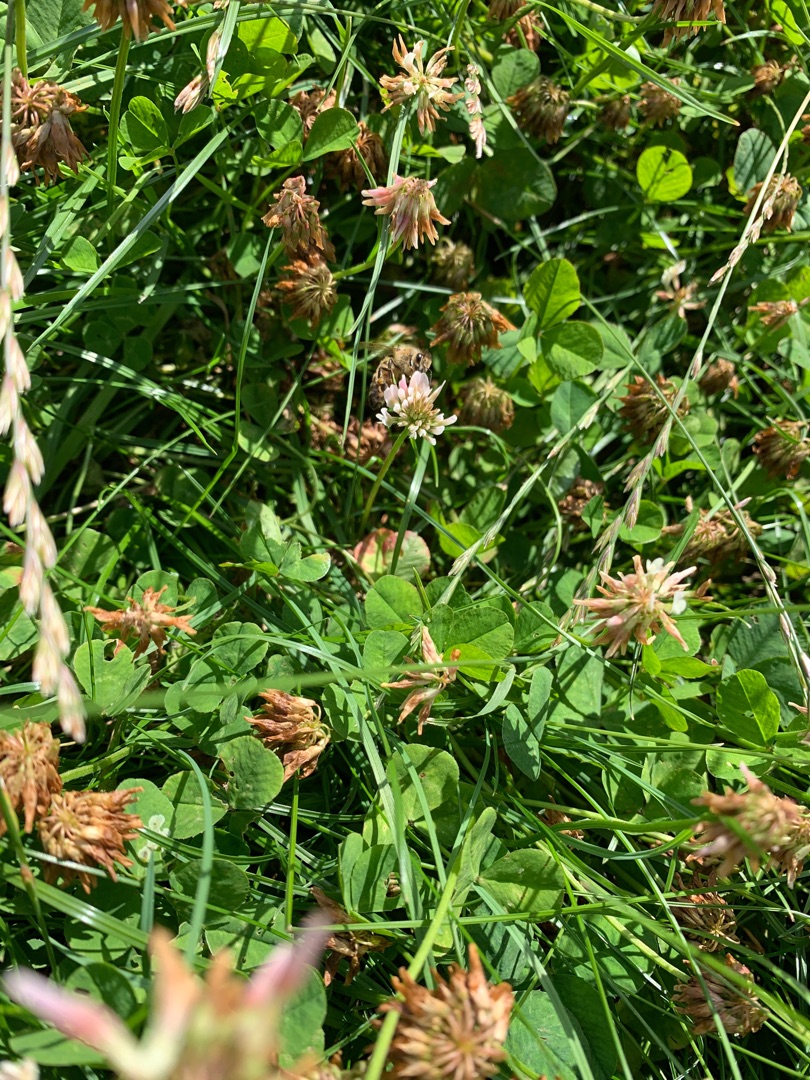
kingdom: Plantae
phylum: Tracheophyta
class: Magnoliopsida
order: Fabales
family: Fabaceae
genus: Trifolium
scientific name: Trifolium repens
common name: Hvid-kløver
